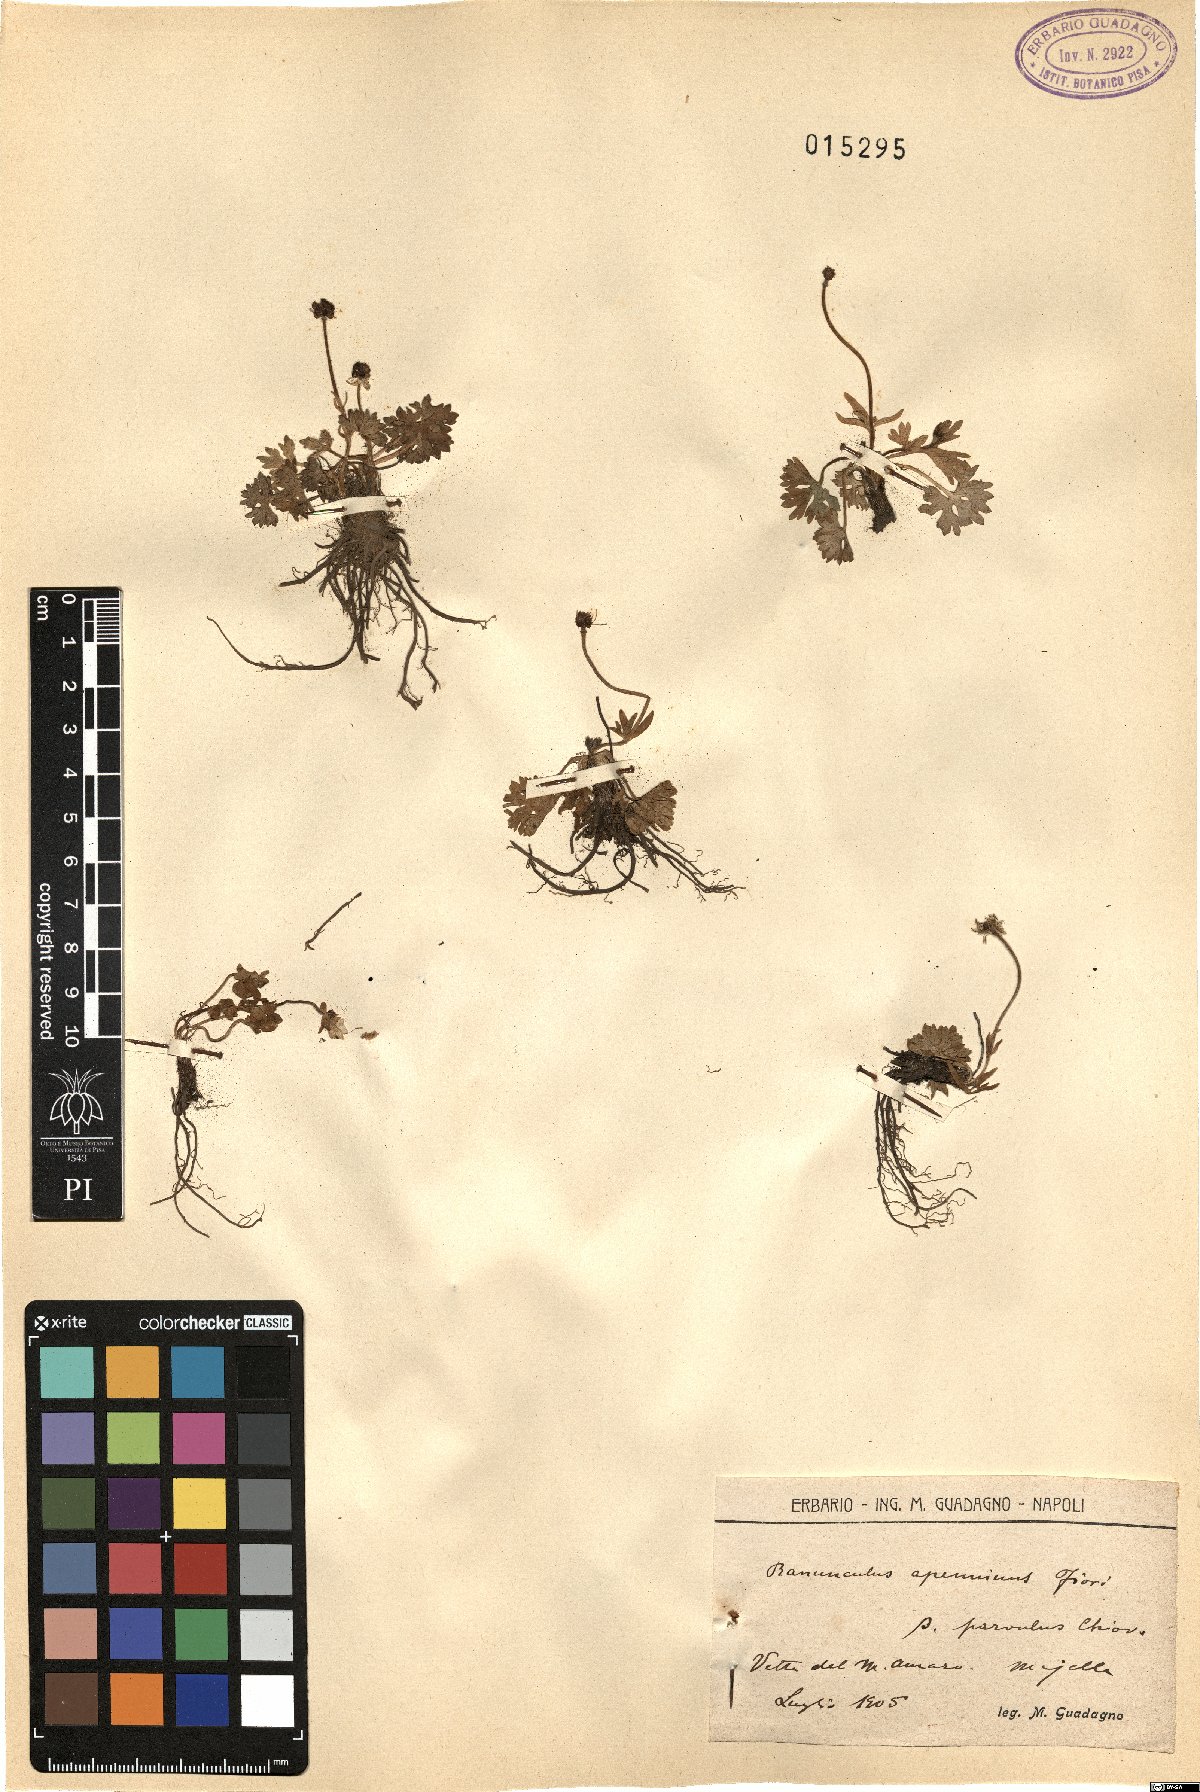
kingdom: Plantae
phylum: Tracheophyta
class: Magnoliopsida
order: Ranunculales
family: Ranunculaceae
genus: Ranunculus
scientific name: Ranunculus apenninus
